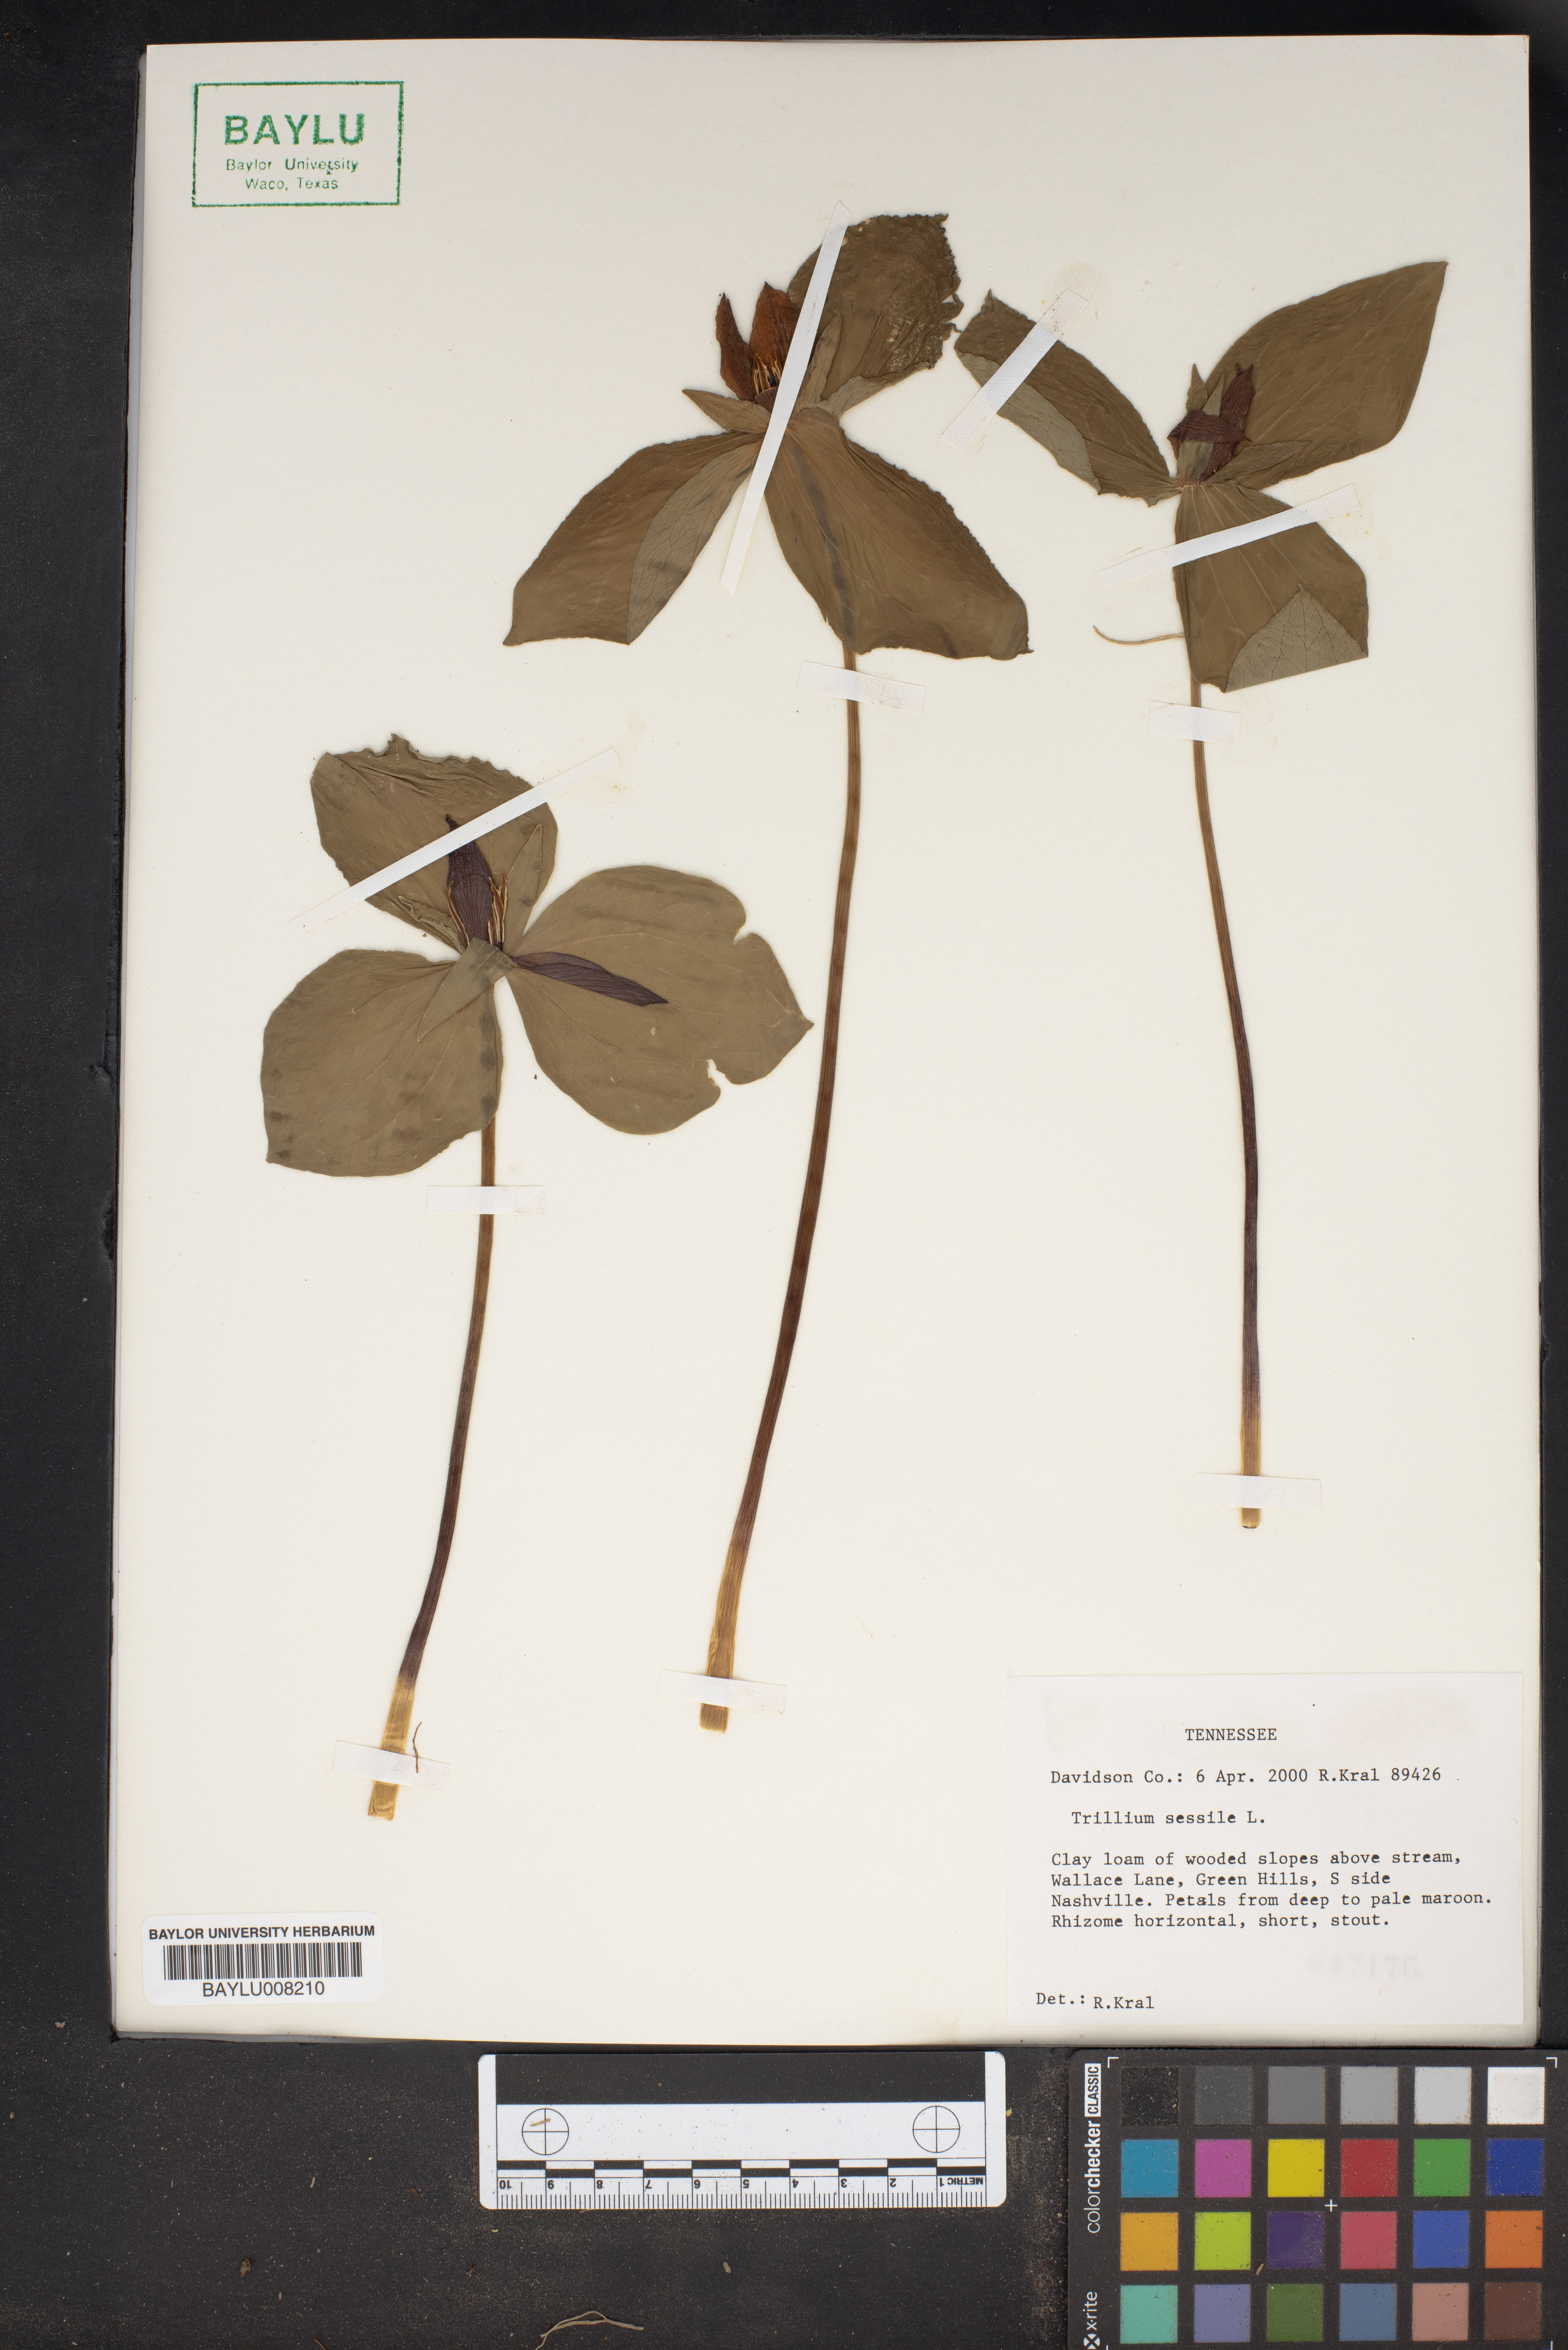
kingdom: Plantae
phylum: Tracheophyta
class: Liliopsida
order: Liliales
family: Melanthiaceae
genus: Trillium
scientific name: Trillium sessile
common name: Sessile trillium
